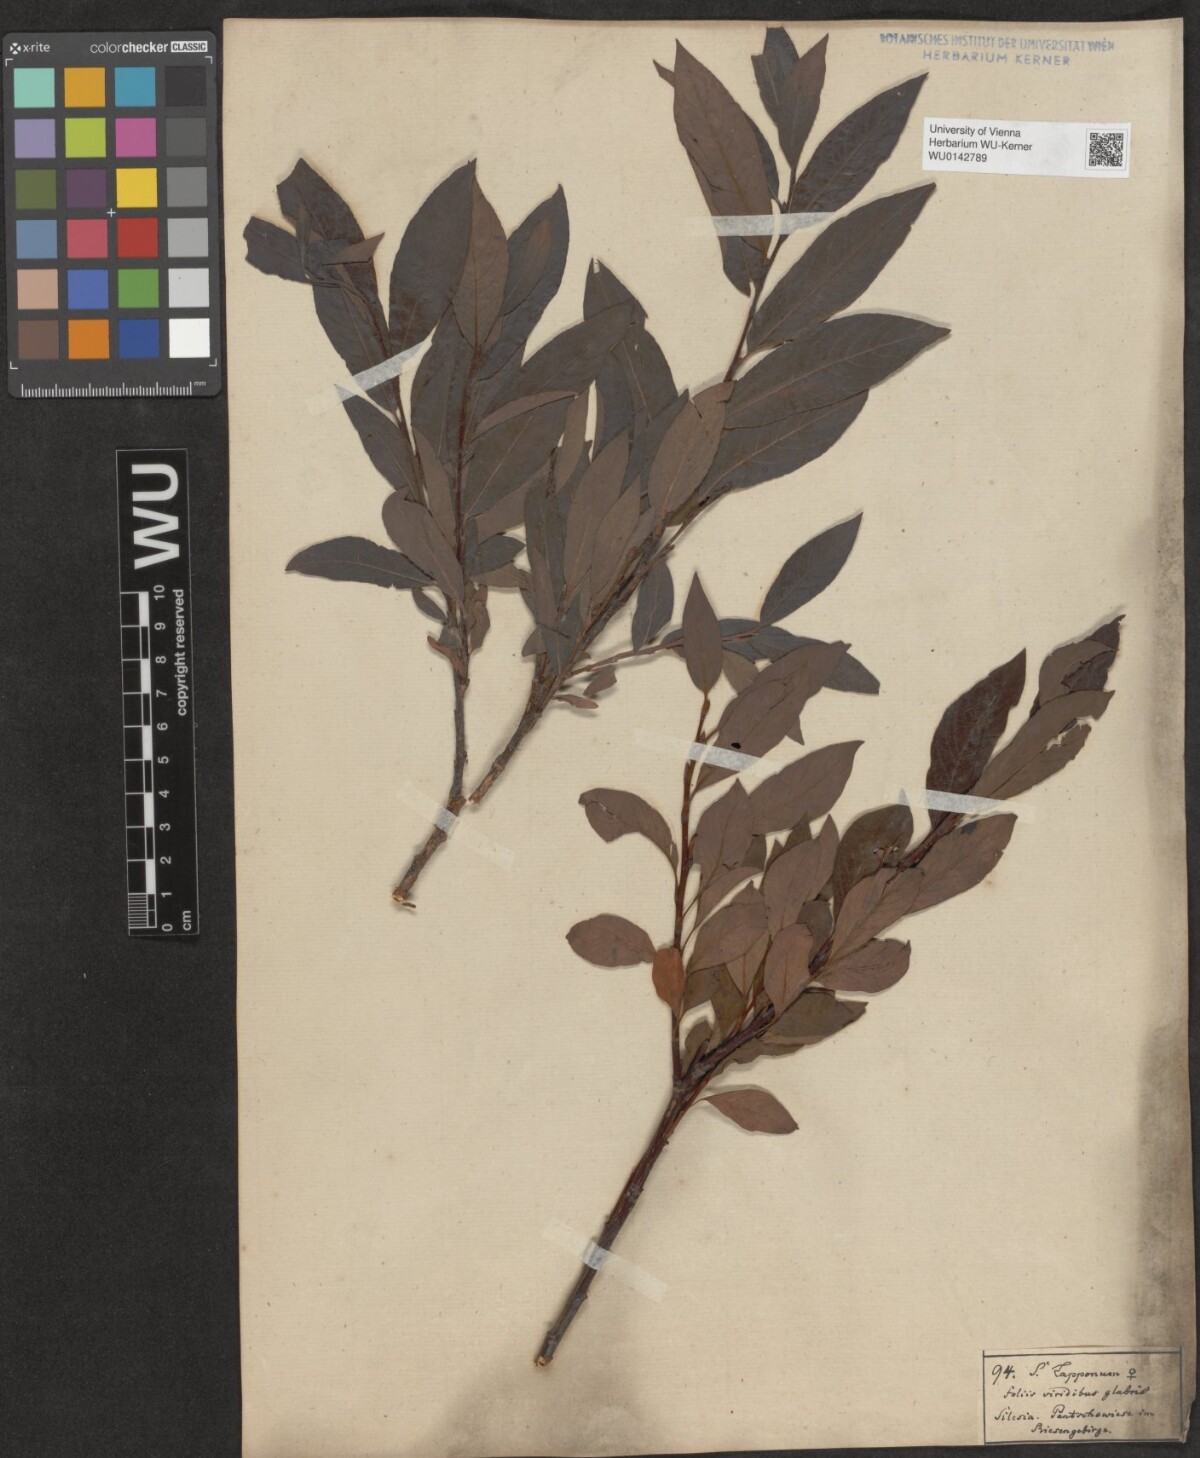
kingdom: Plantae
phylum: Tracheophyta
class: Magnoliopsida
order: Malpighiales
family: Salicaceae
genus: Salix
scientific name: Salix lapponum
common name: Downy willow
